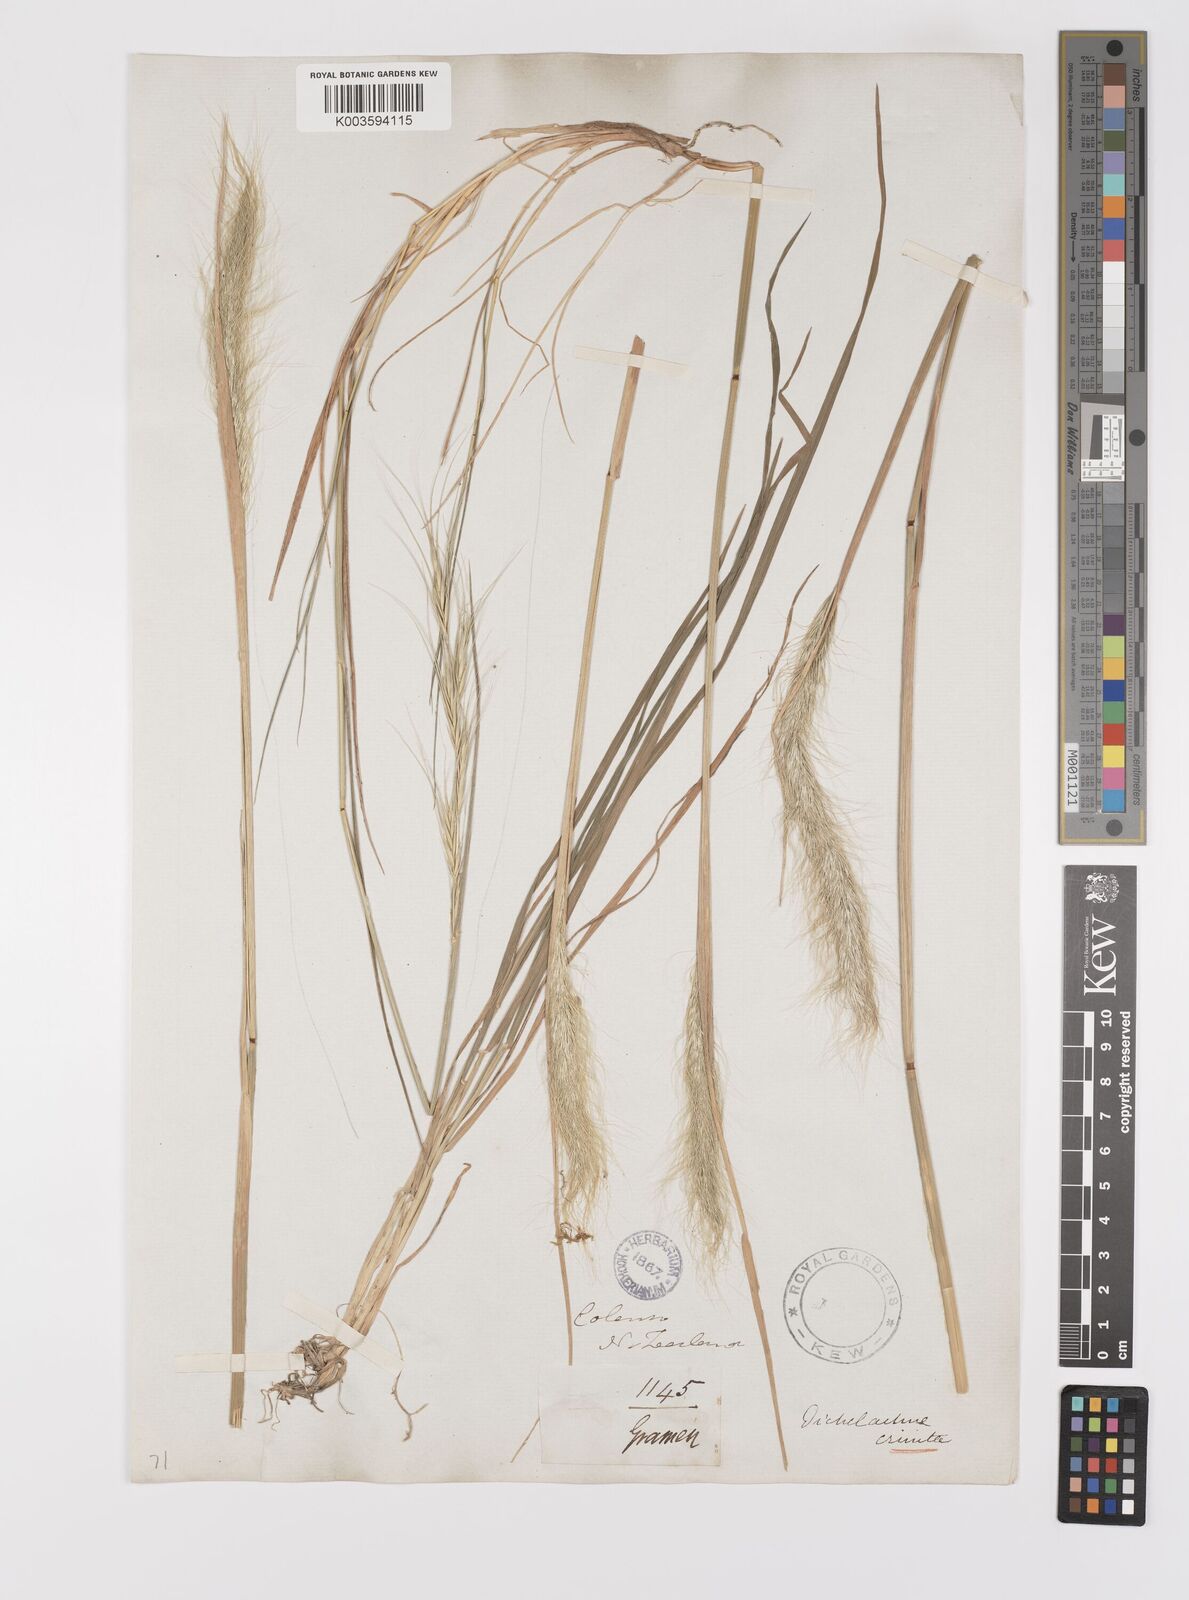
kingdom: Plantae
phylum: Tracheophyta
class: Liliopsida
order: Poales
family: Poaceae
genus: Dichelachne
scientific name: Dichelachne crinita
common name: Clovenfoot plumegrass
